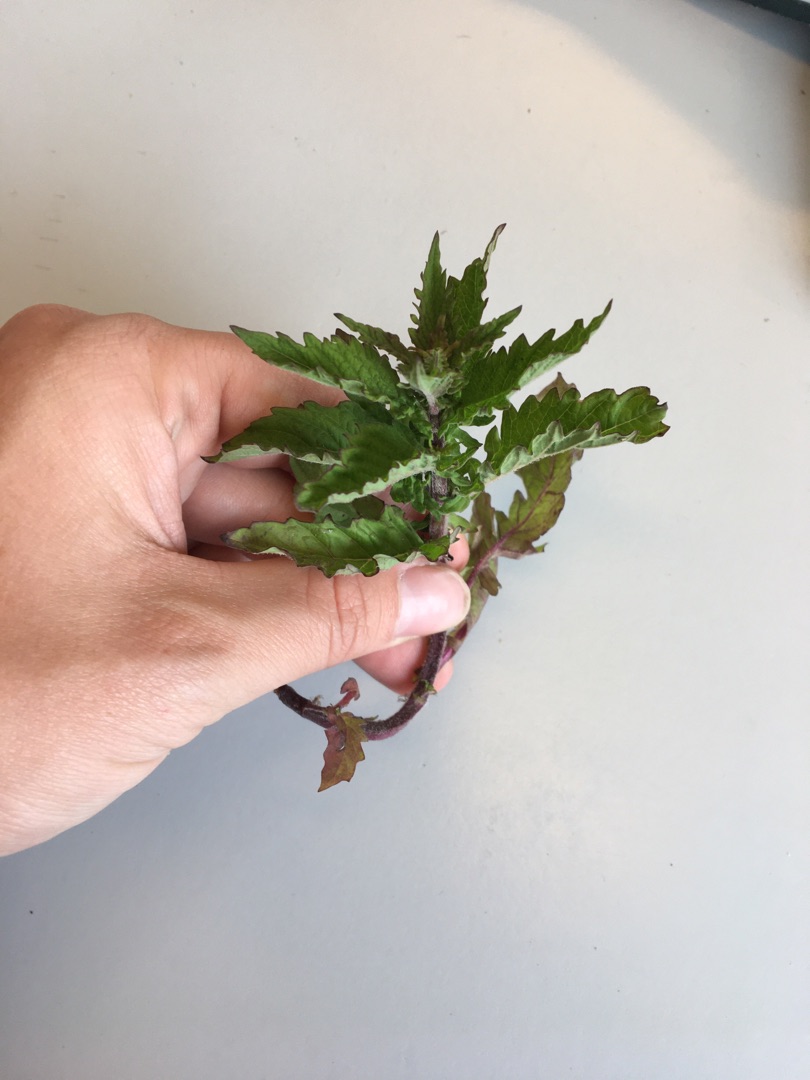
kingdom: Plantae
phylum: Tracheophyta
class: Magnoliopsida
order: Lamiales
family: Lamiaceae
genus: Lycopus
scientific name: Lycopus europaeus
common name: Sværtevæld
